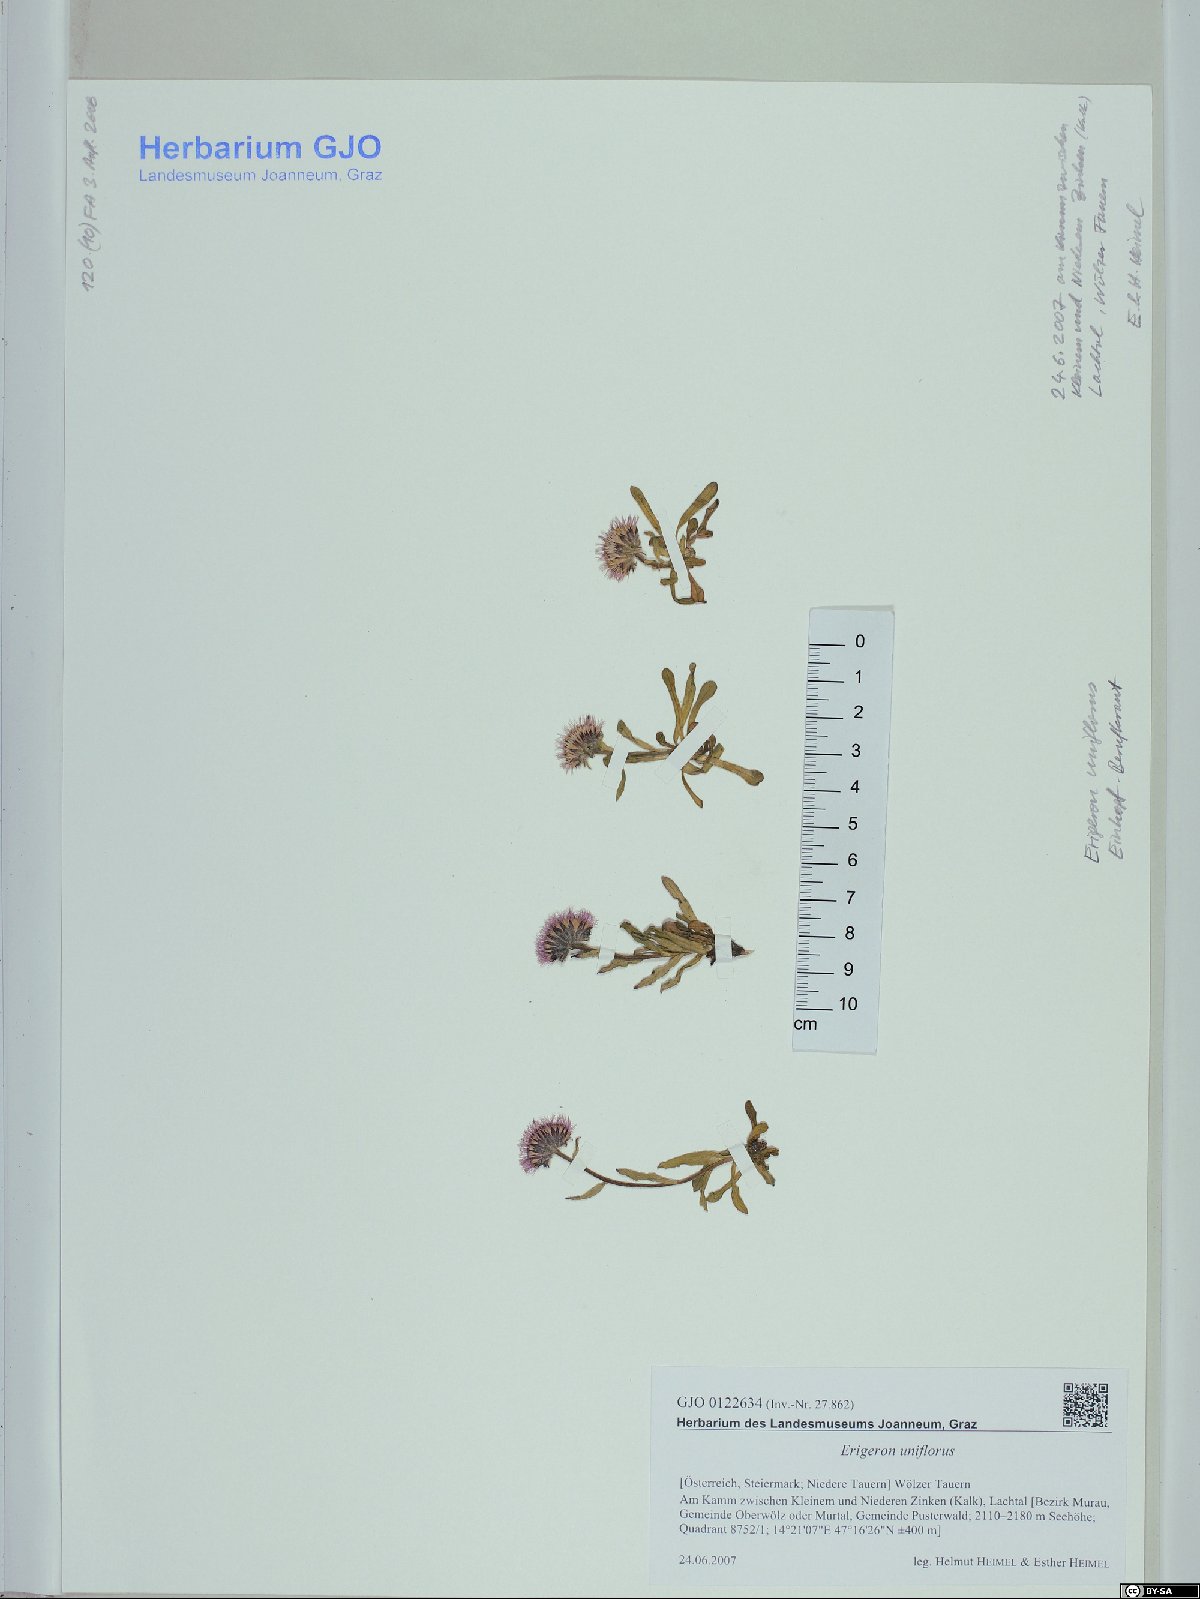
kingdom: Plantae
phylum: Tracheophyta
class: Magnoliopsida
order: Asterales
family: Asteraceae
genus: Erigeron
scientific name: Erigeron uniflorus
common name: Northern daisy
